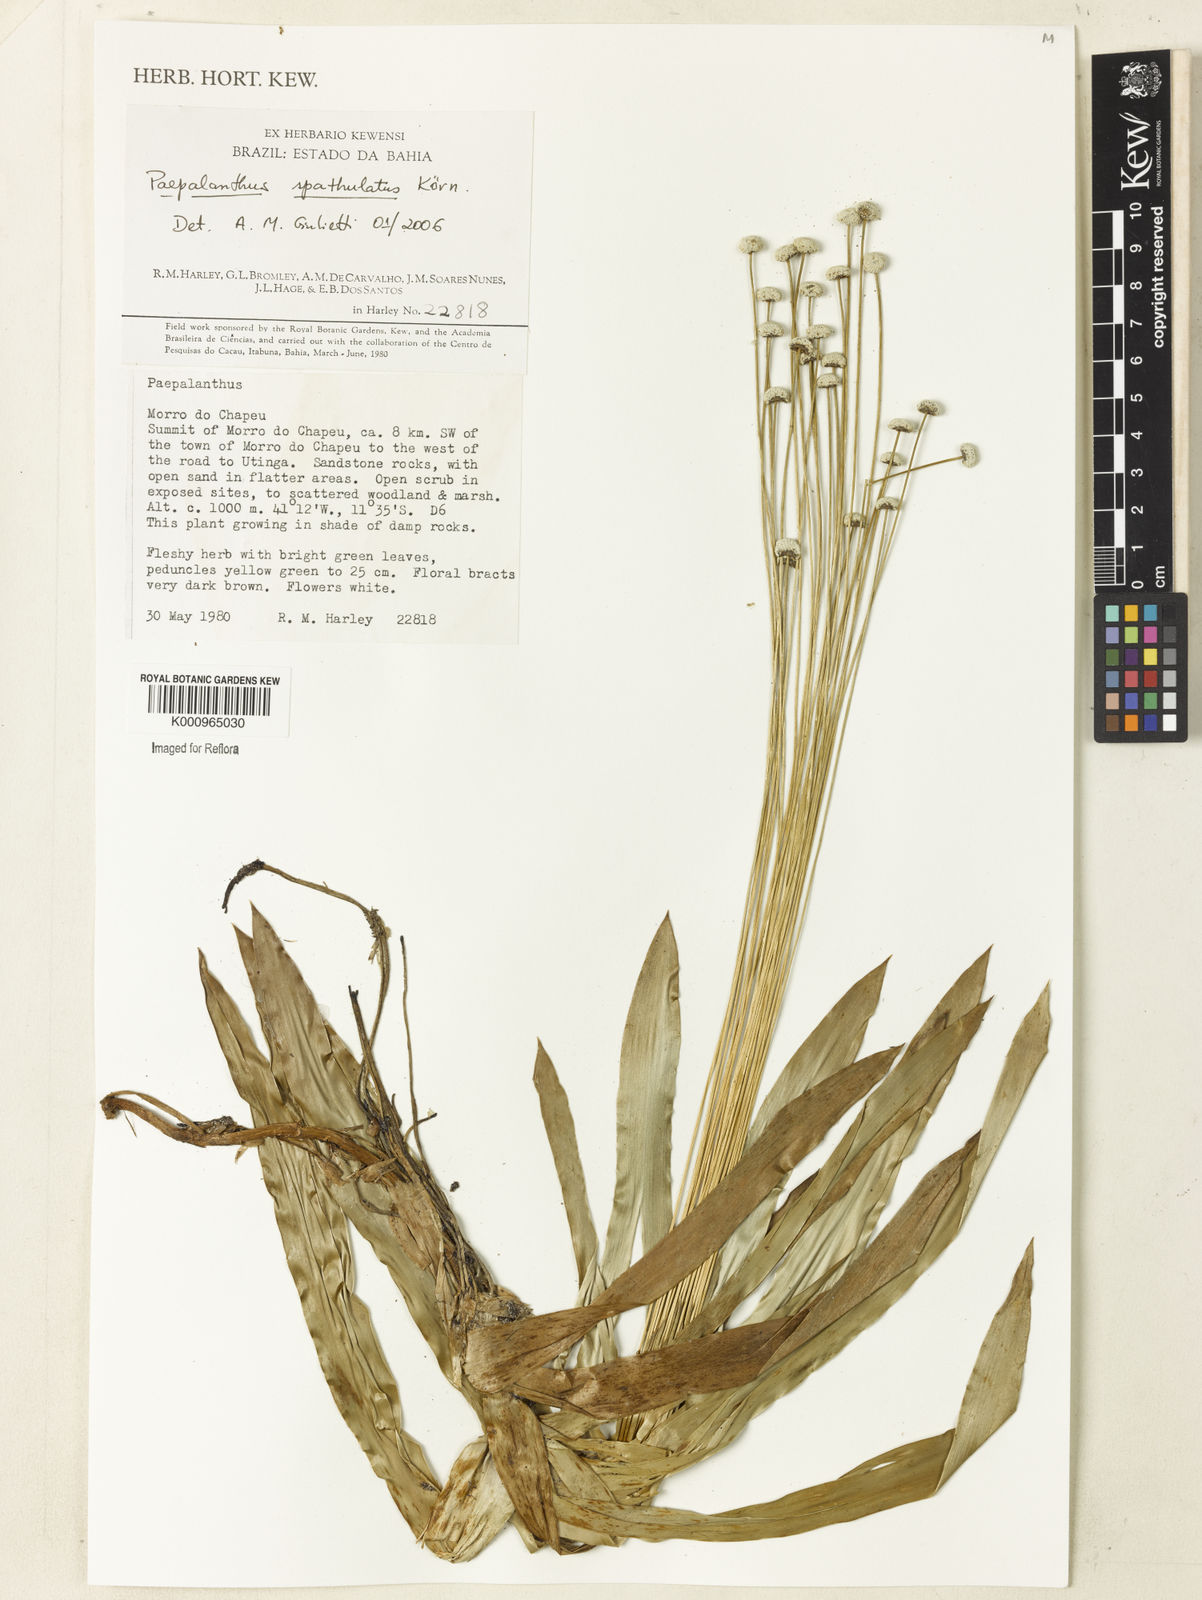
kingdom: Plantae
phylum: Tracheophyta
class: Liliopsida
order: Poales
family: Eriocaulaceae
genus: Paepalanthus
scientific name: Paepalanthus
